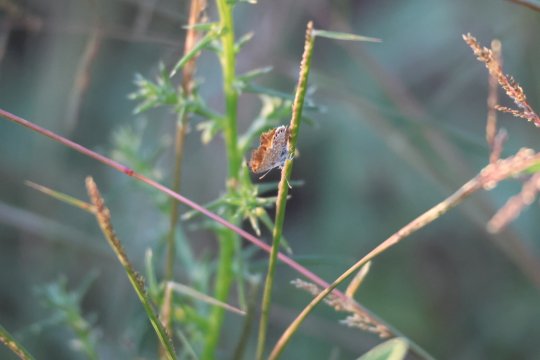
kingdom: Animalia
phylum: Arthropoda
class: Insecta
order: Lepidoptera
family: Lycaenidae
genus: Brephidium
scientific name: Brephidium exilis
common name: Western Pygmy-Blue
